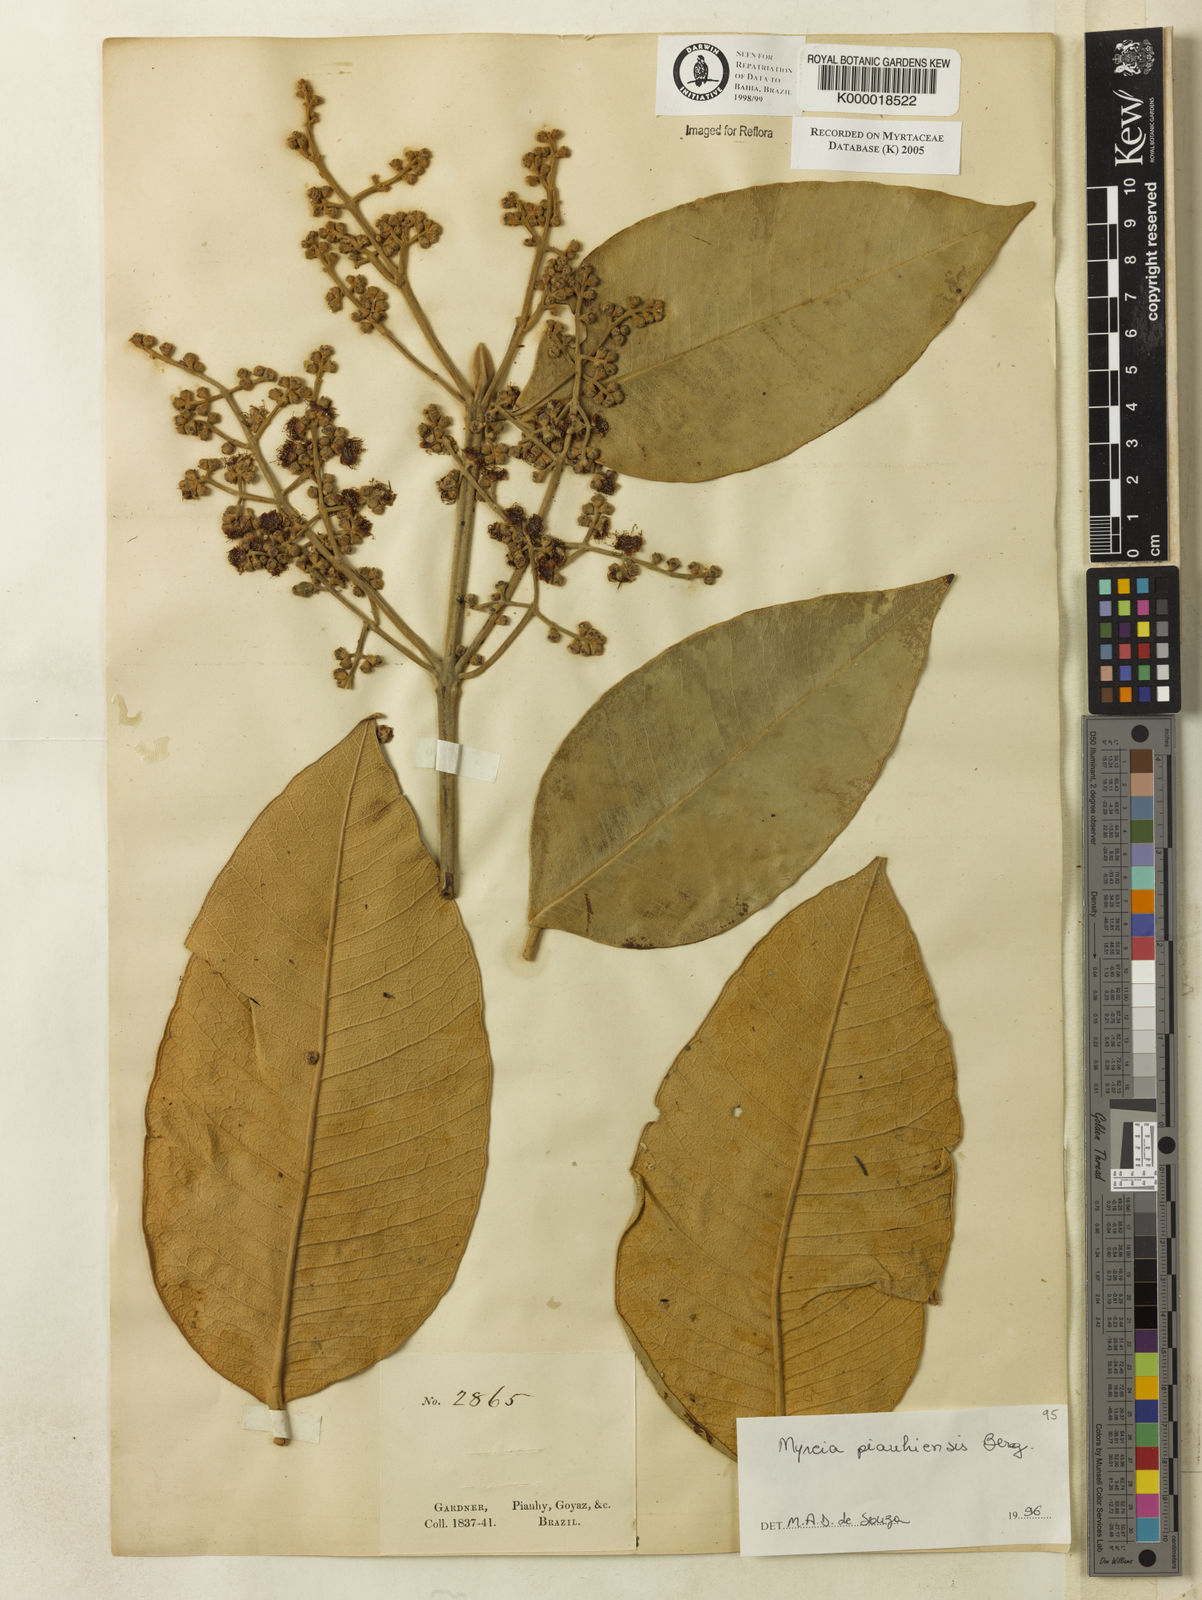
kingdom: Plantae
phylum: Tracheophyta
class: Magnoliopsida
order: Myrtales
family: Myrtaceae
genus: Myrcia
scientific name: Myrcia tomentosa
